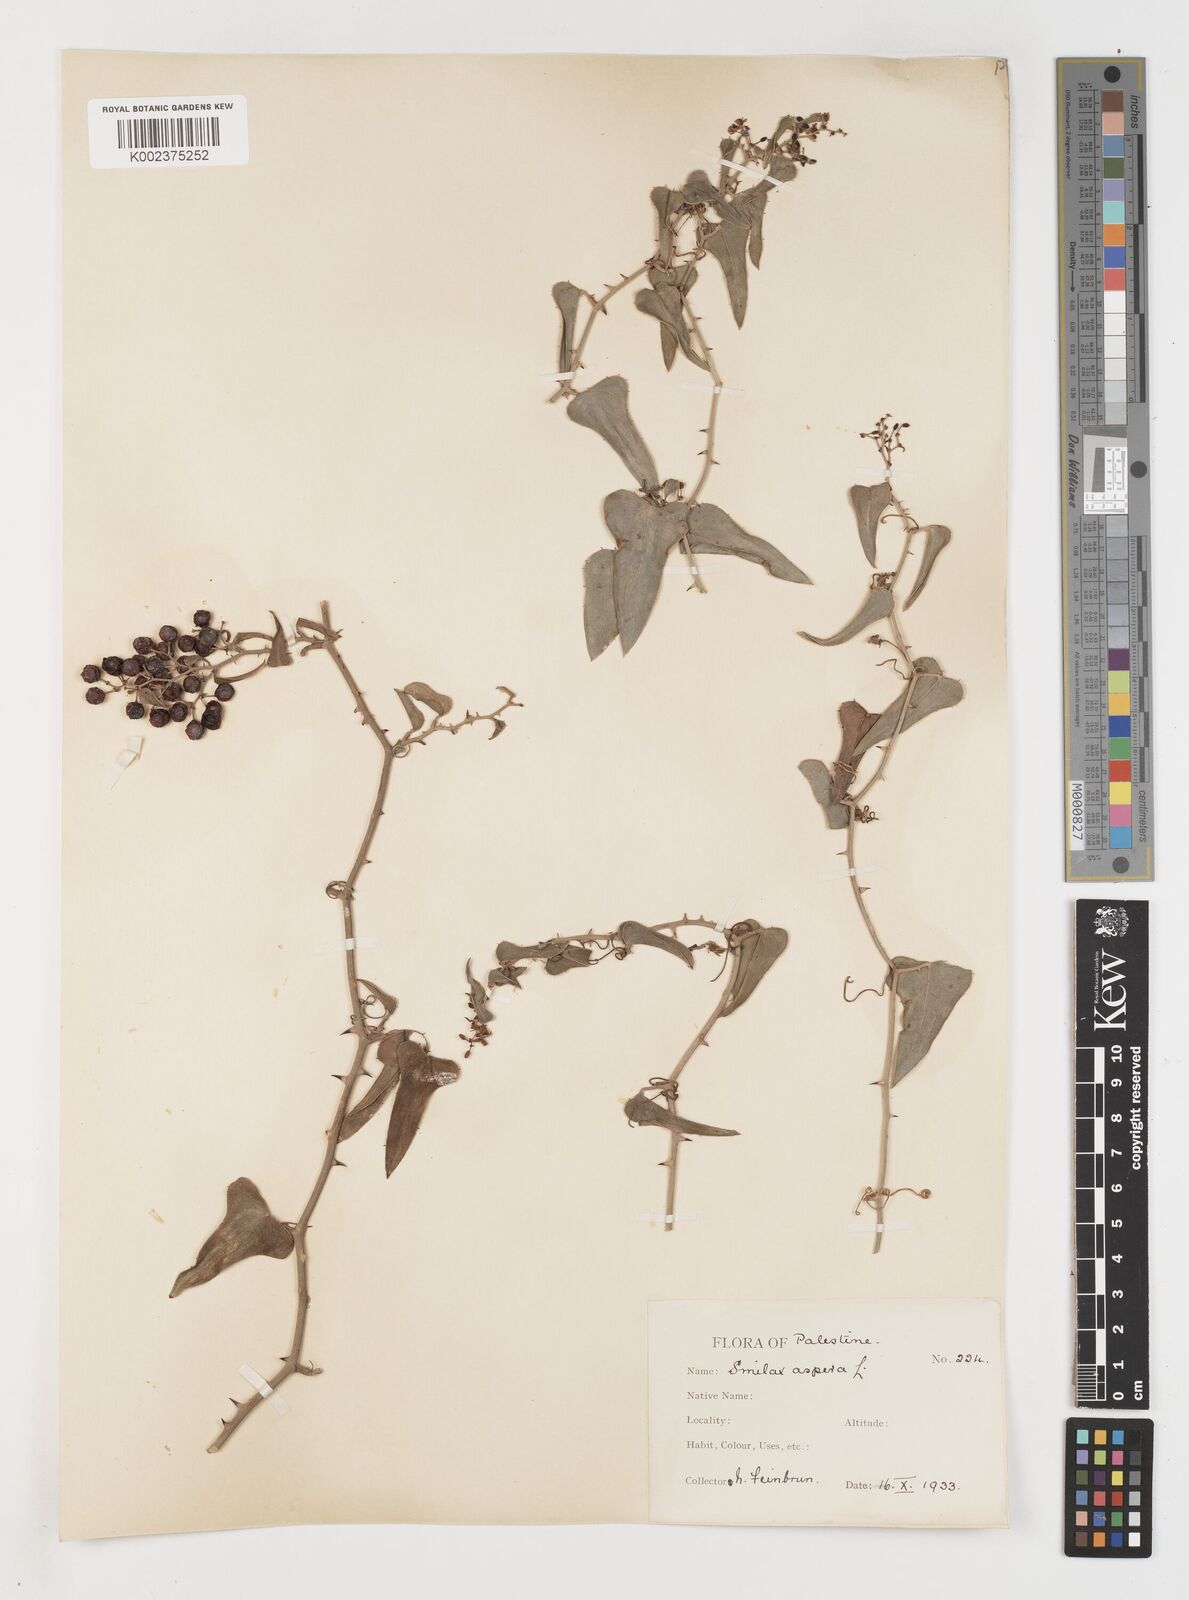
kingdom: Plantae
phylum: Tracheophyta
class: Liliopsida
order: Liliales
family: Smilacaceae
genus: Smilax
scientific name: Smilax aspera
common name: Common smilax
